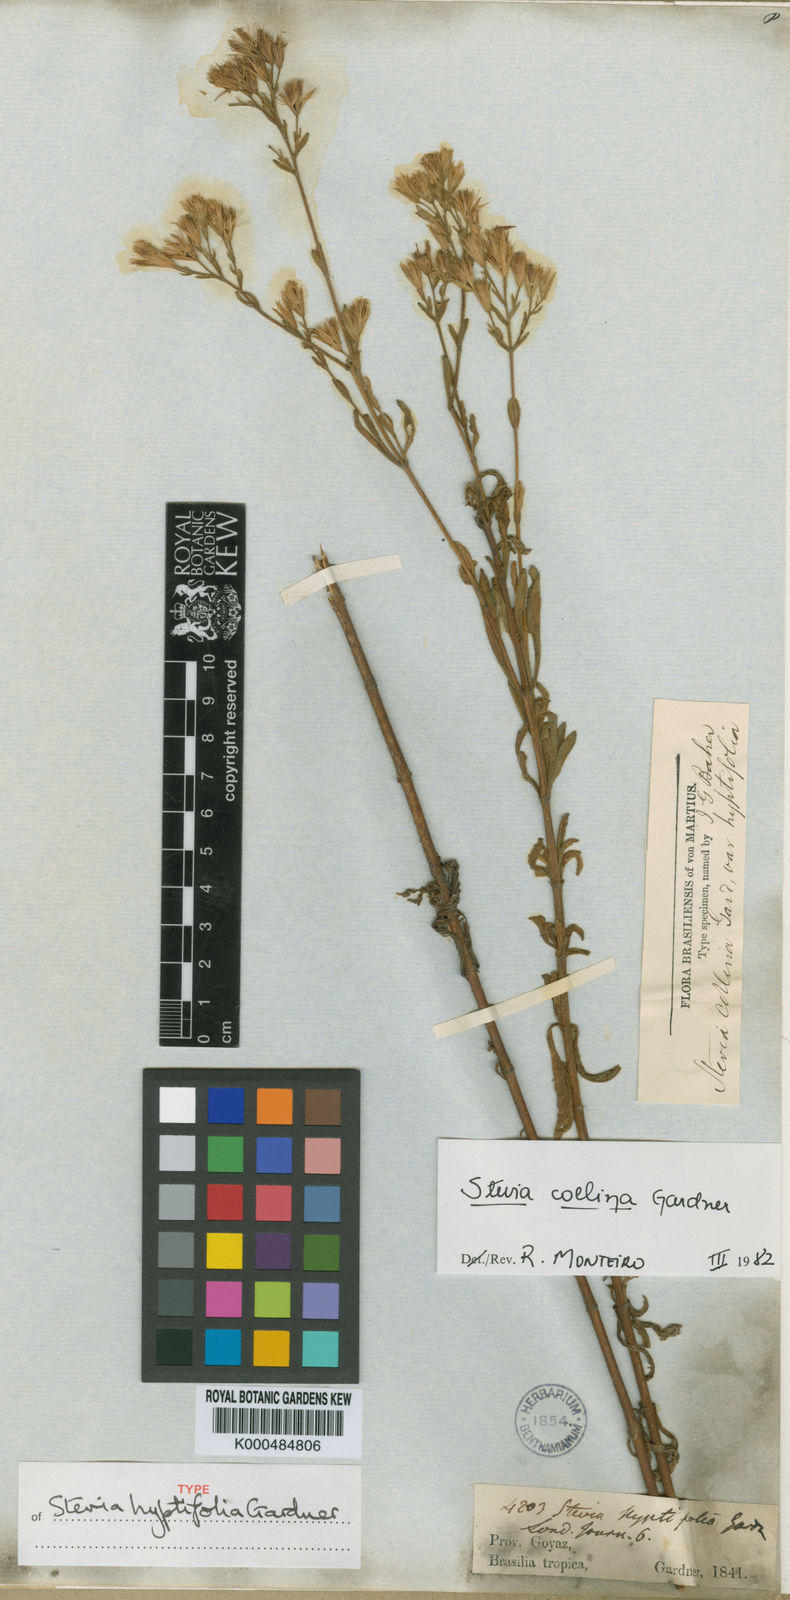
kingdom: Plantae
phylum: Tracheophyta
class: Magnoliopsida
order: Asterales
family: Asteraceae
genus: Stevia
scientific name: Stevia collina
